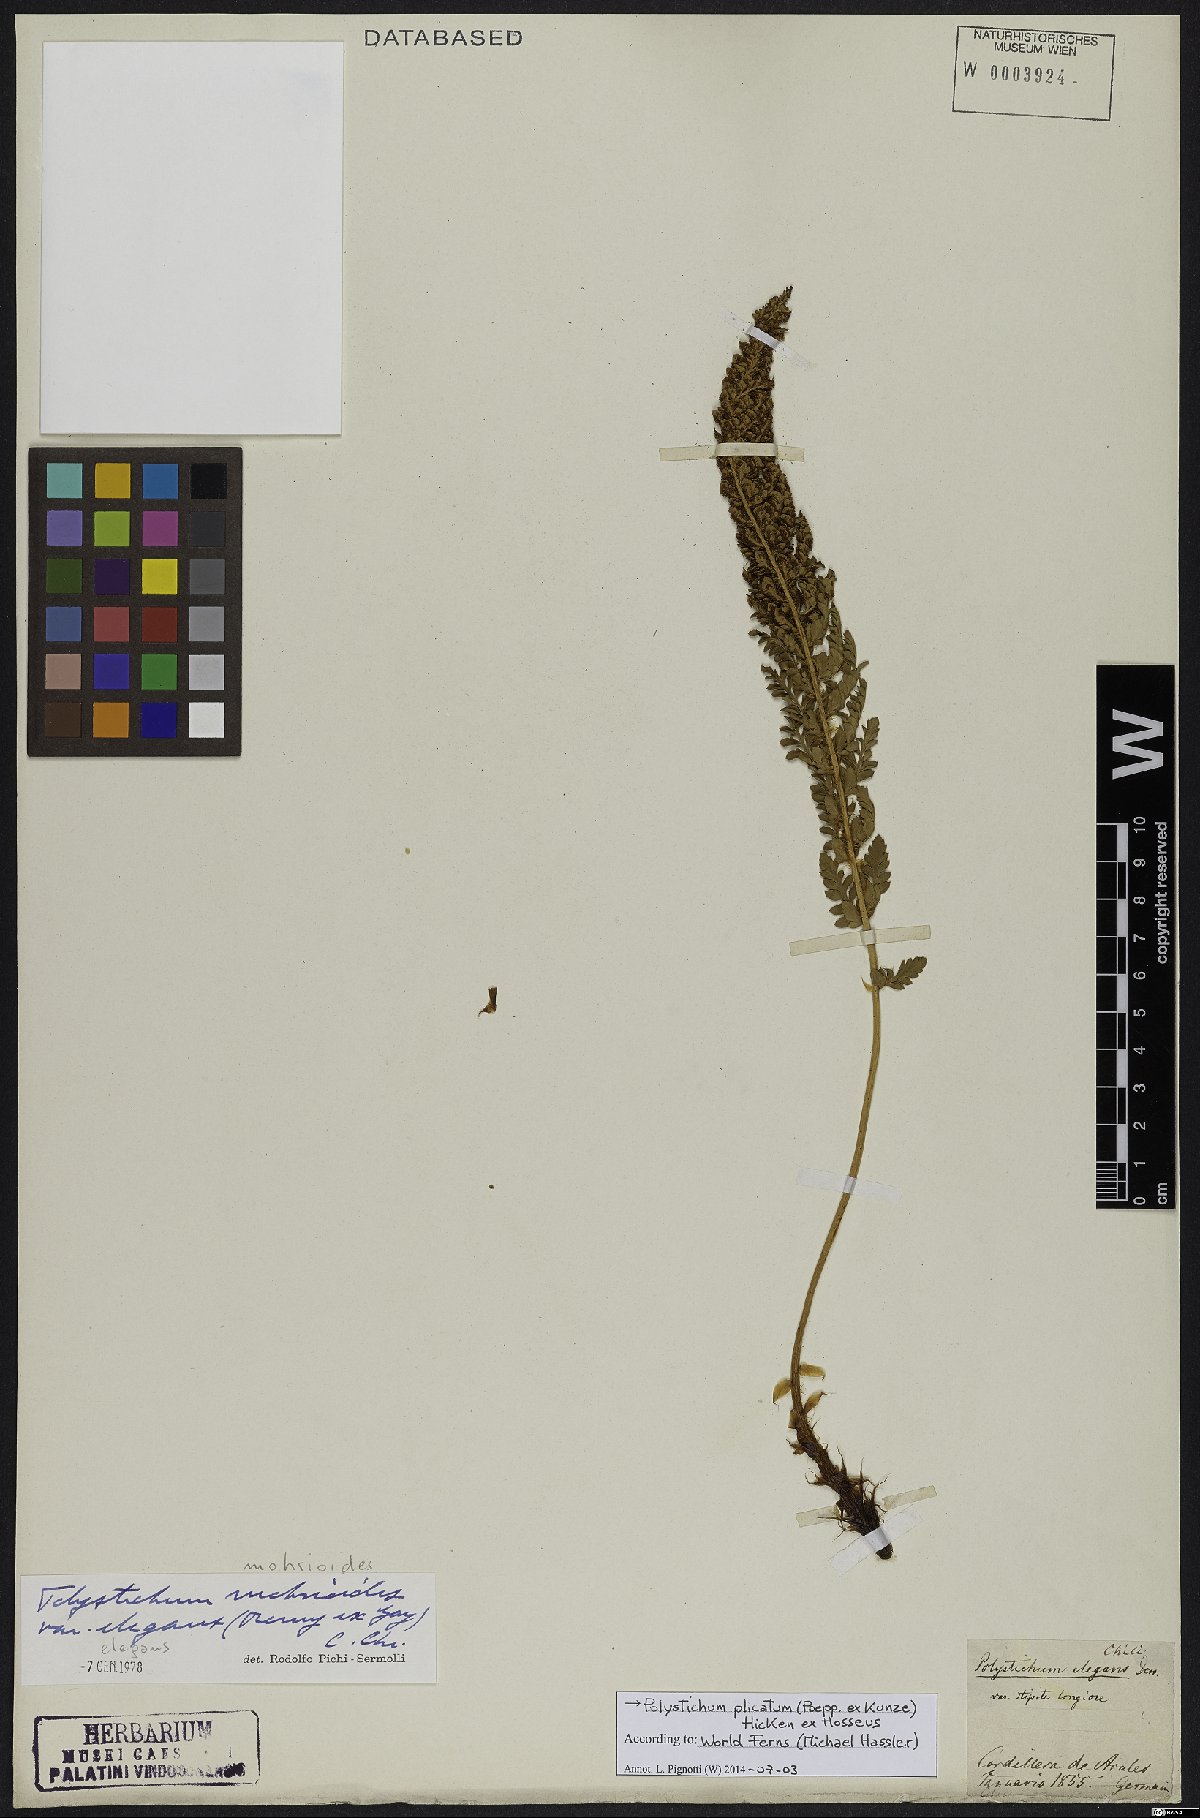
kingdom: Plantae
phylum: Tracheophyta
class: Polypodiopsida
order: Polypodiales
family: Dryopteridaceae
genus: Polystichum
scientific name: Polystichum plicatum
